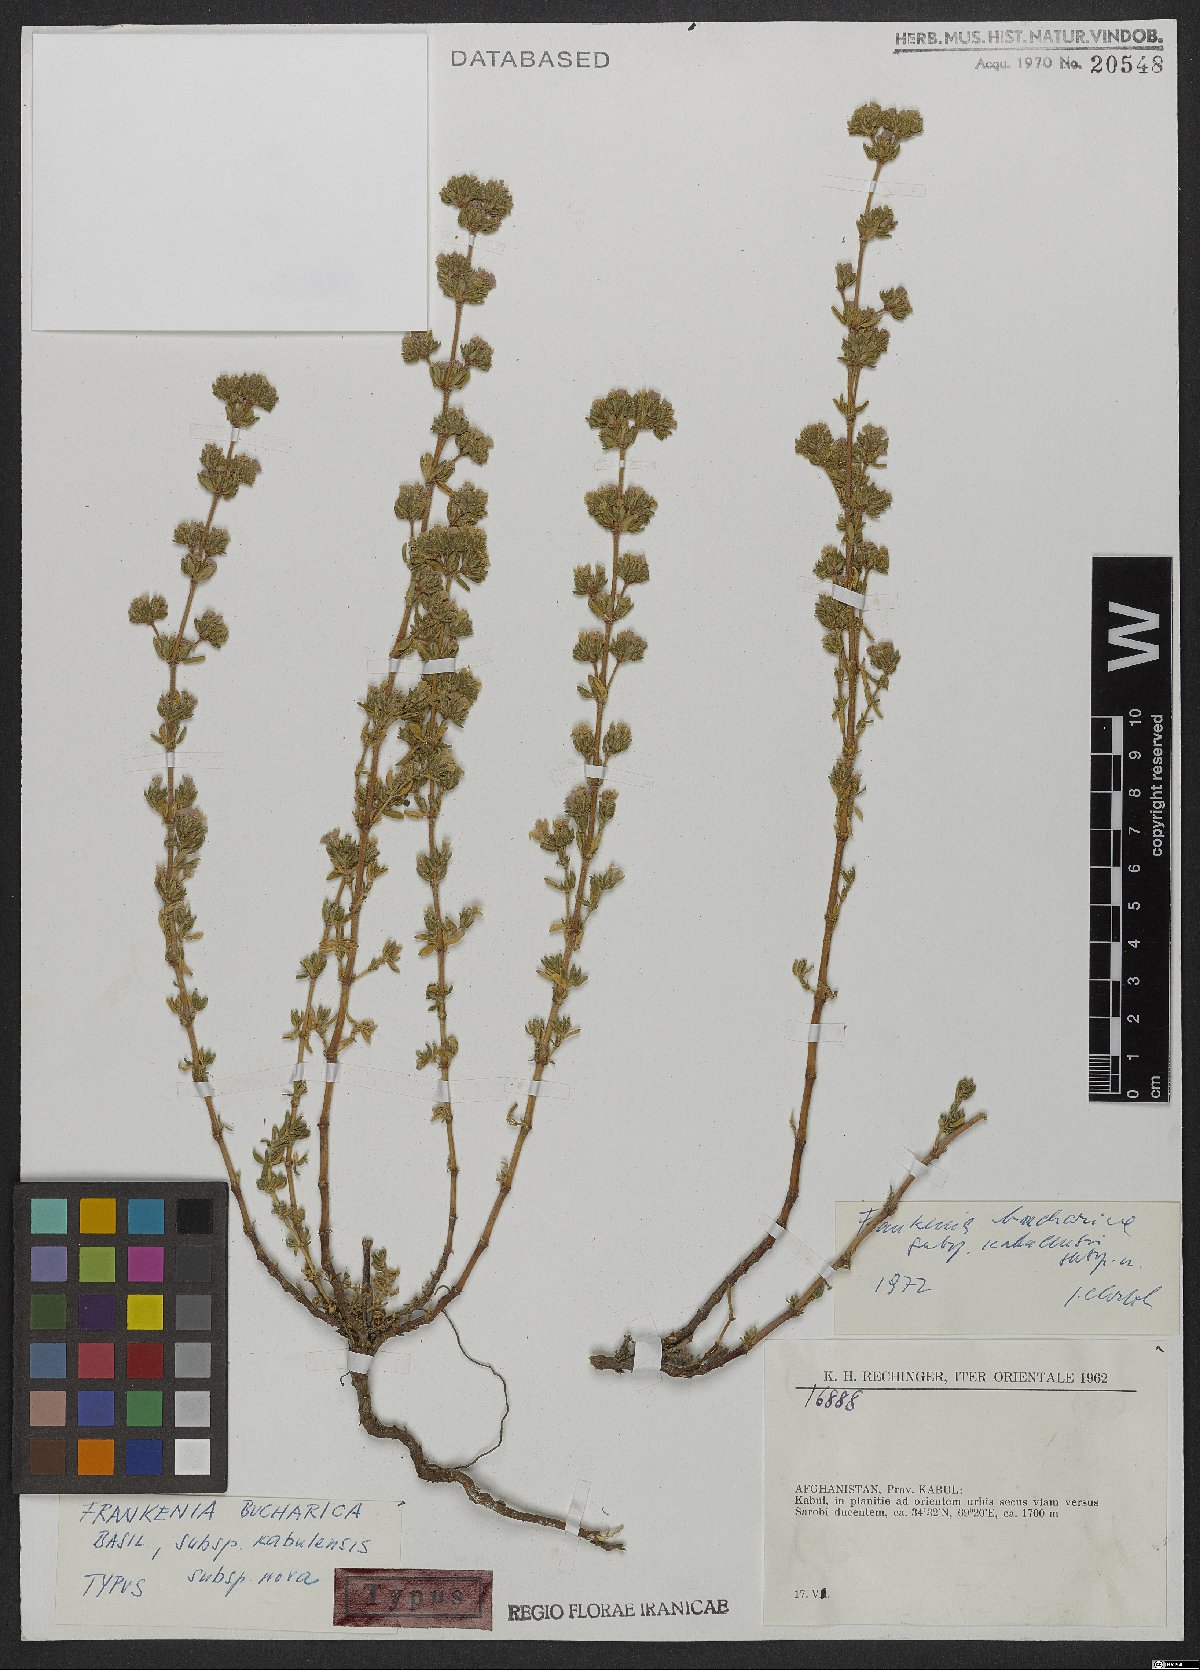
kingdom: Plantae
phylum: Tracheophyta
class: Magnoliopsida
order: Caryophyllales
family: Frankeniaceae
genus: Frankenia
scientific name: Frankenia bucharica
